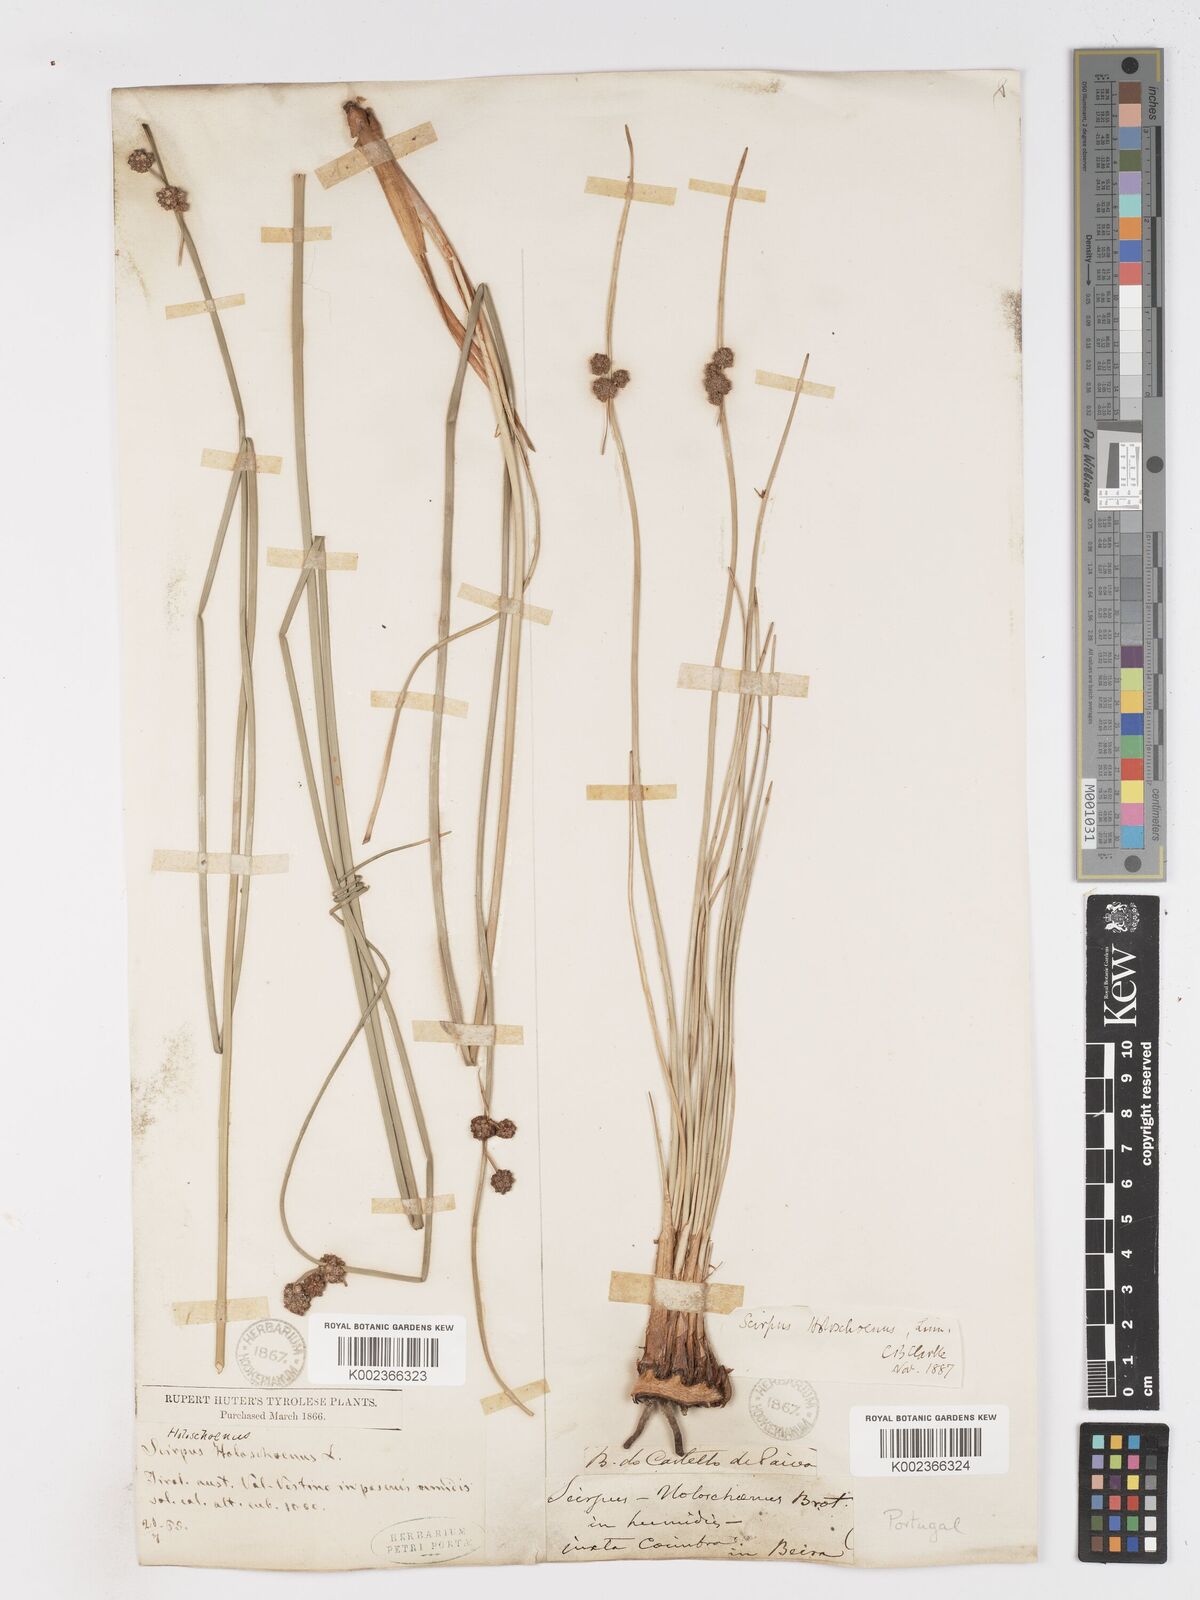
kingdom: Plantae
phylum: Tracheophyta
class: Liliopsida
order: Poales
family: Cyperaceae
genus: Scirpoides
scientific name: Scirpoides holoschoenus
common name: Round-headed club-rush
